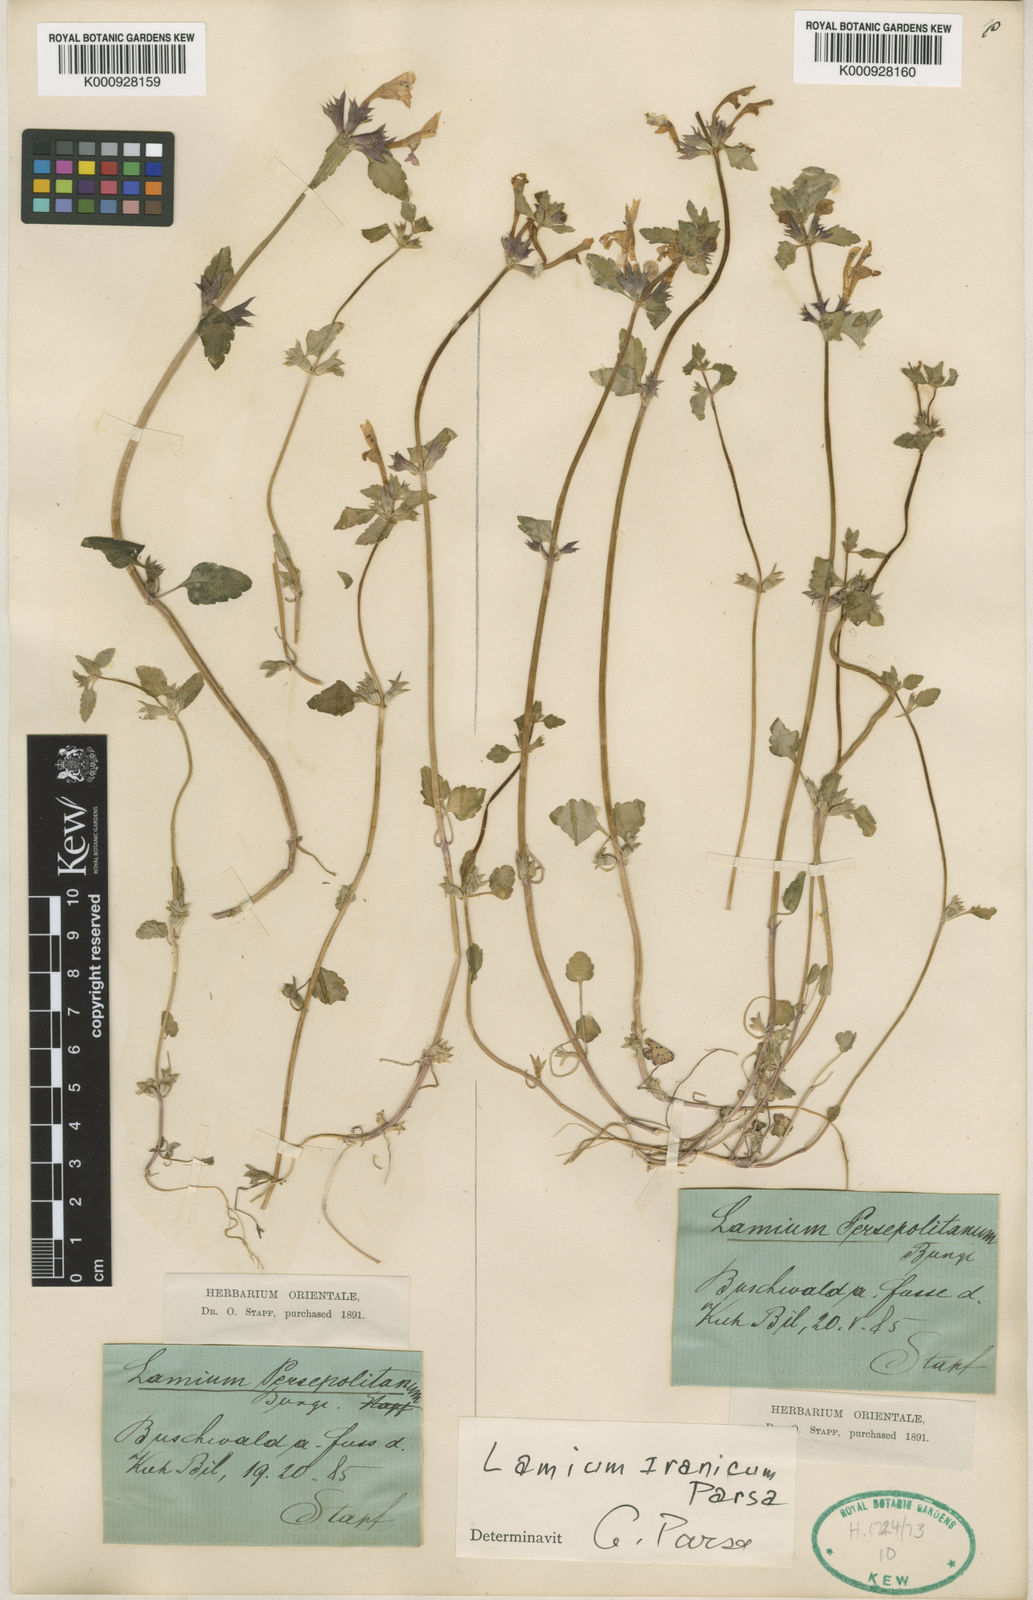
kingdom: Plantae
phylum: Tracheophyta
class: Magnoliopsida
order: Lamiales
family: Lamiaceae
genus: Lamium
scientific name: Lamium iranicum
